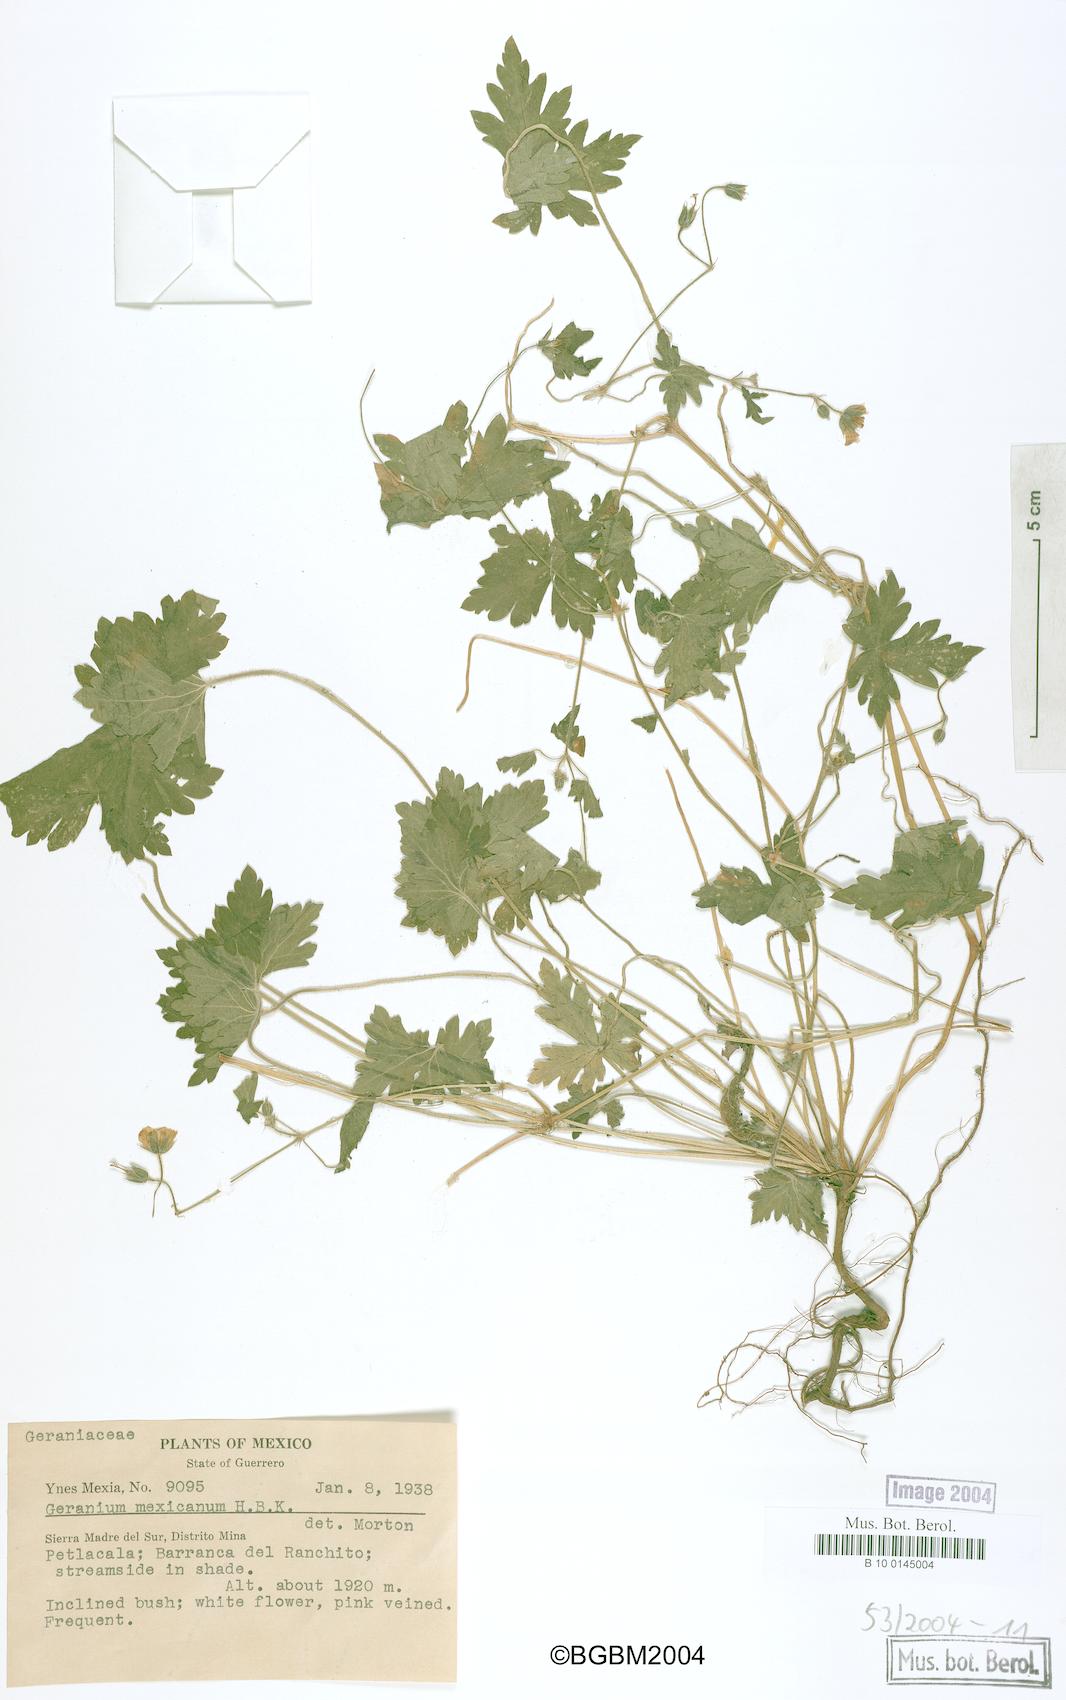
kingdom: Plantae
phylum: Tracheophyta
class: Magnoliopsida
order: Geraniales
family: Geraniaceae
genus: Geranium
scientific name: Geranium lilacinum
